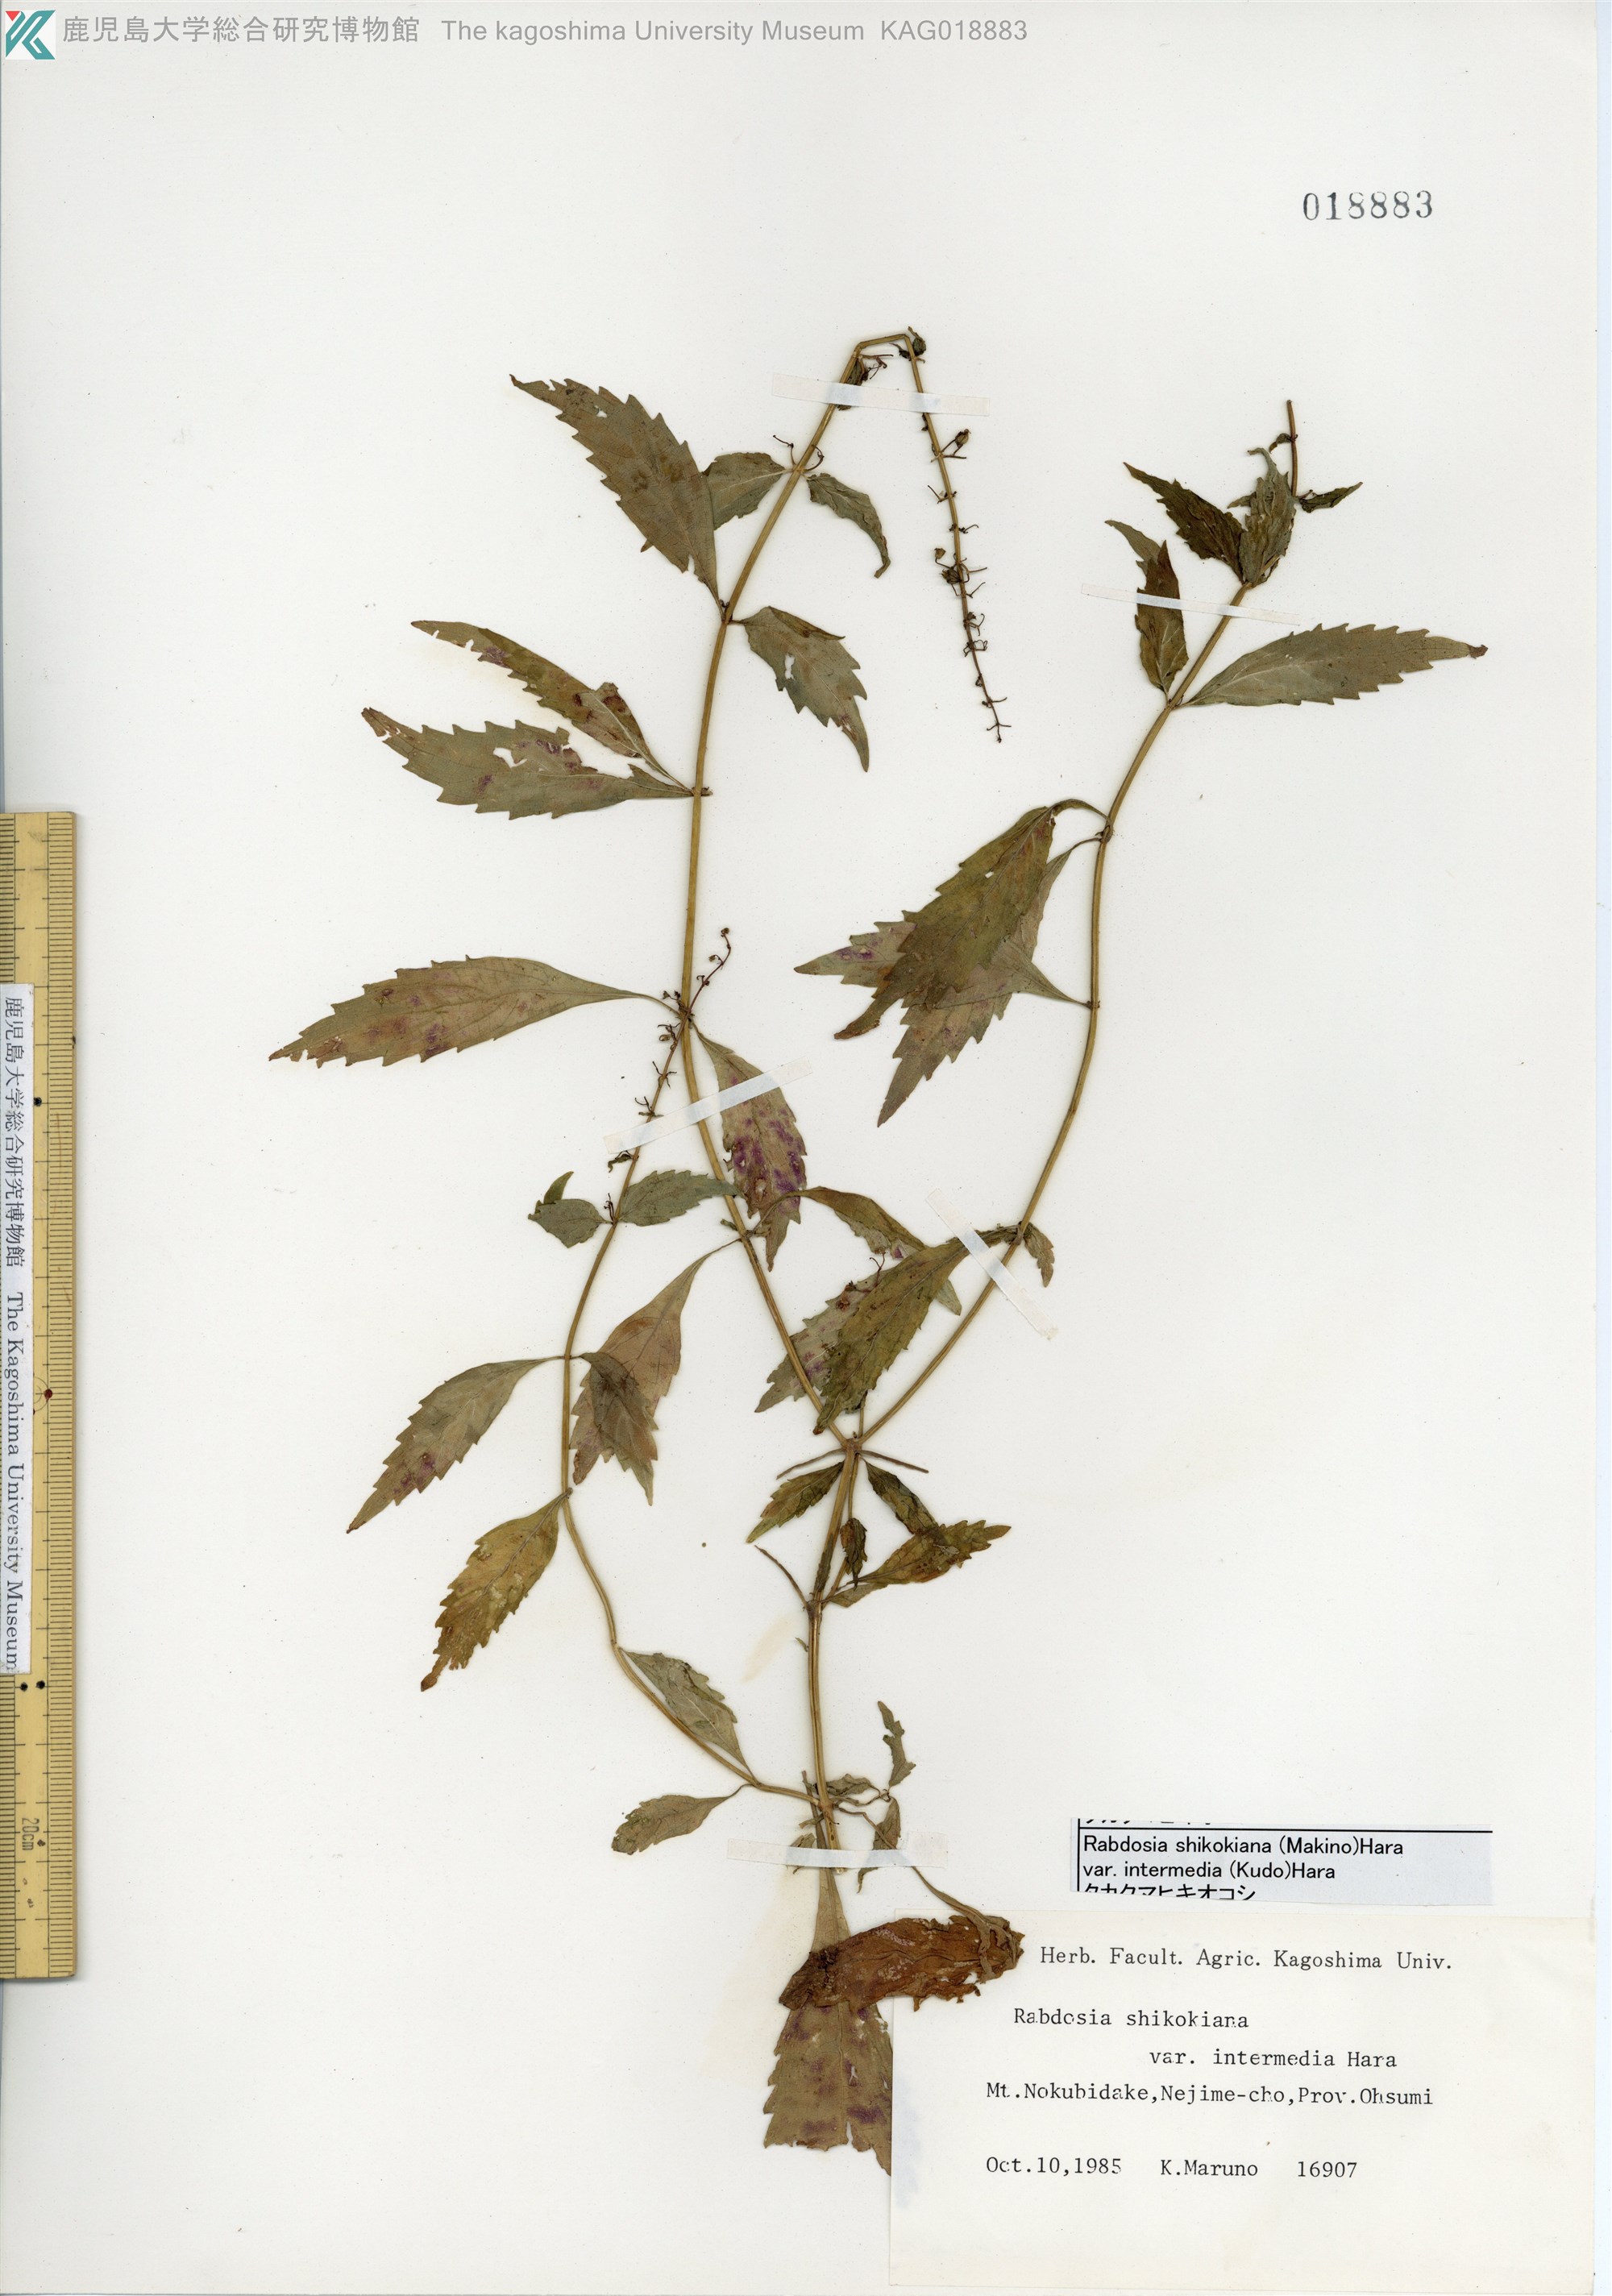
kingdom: Plantae
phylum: Tracheophyta
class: Magnoliopsida
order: Lamiales
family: Lamiaceae
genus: Isodon
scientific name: Isodon shikokianus
